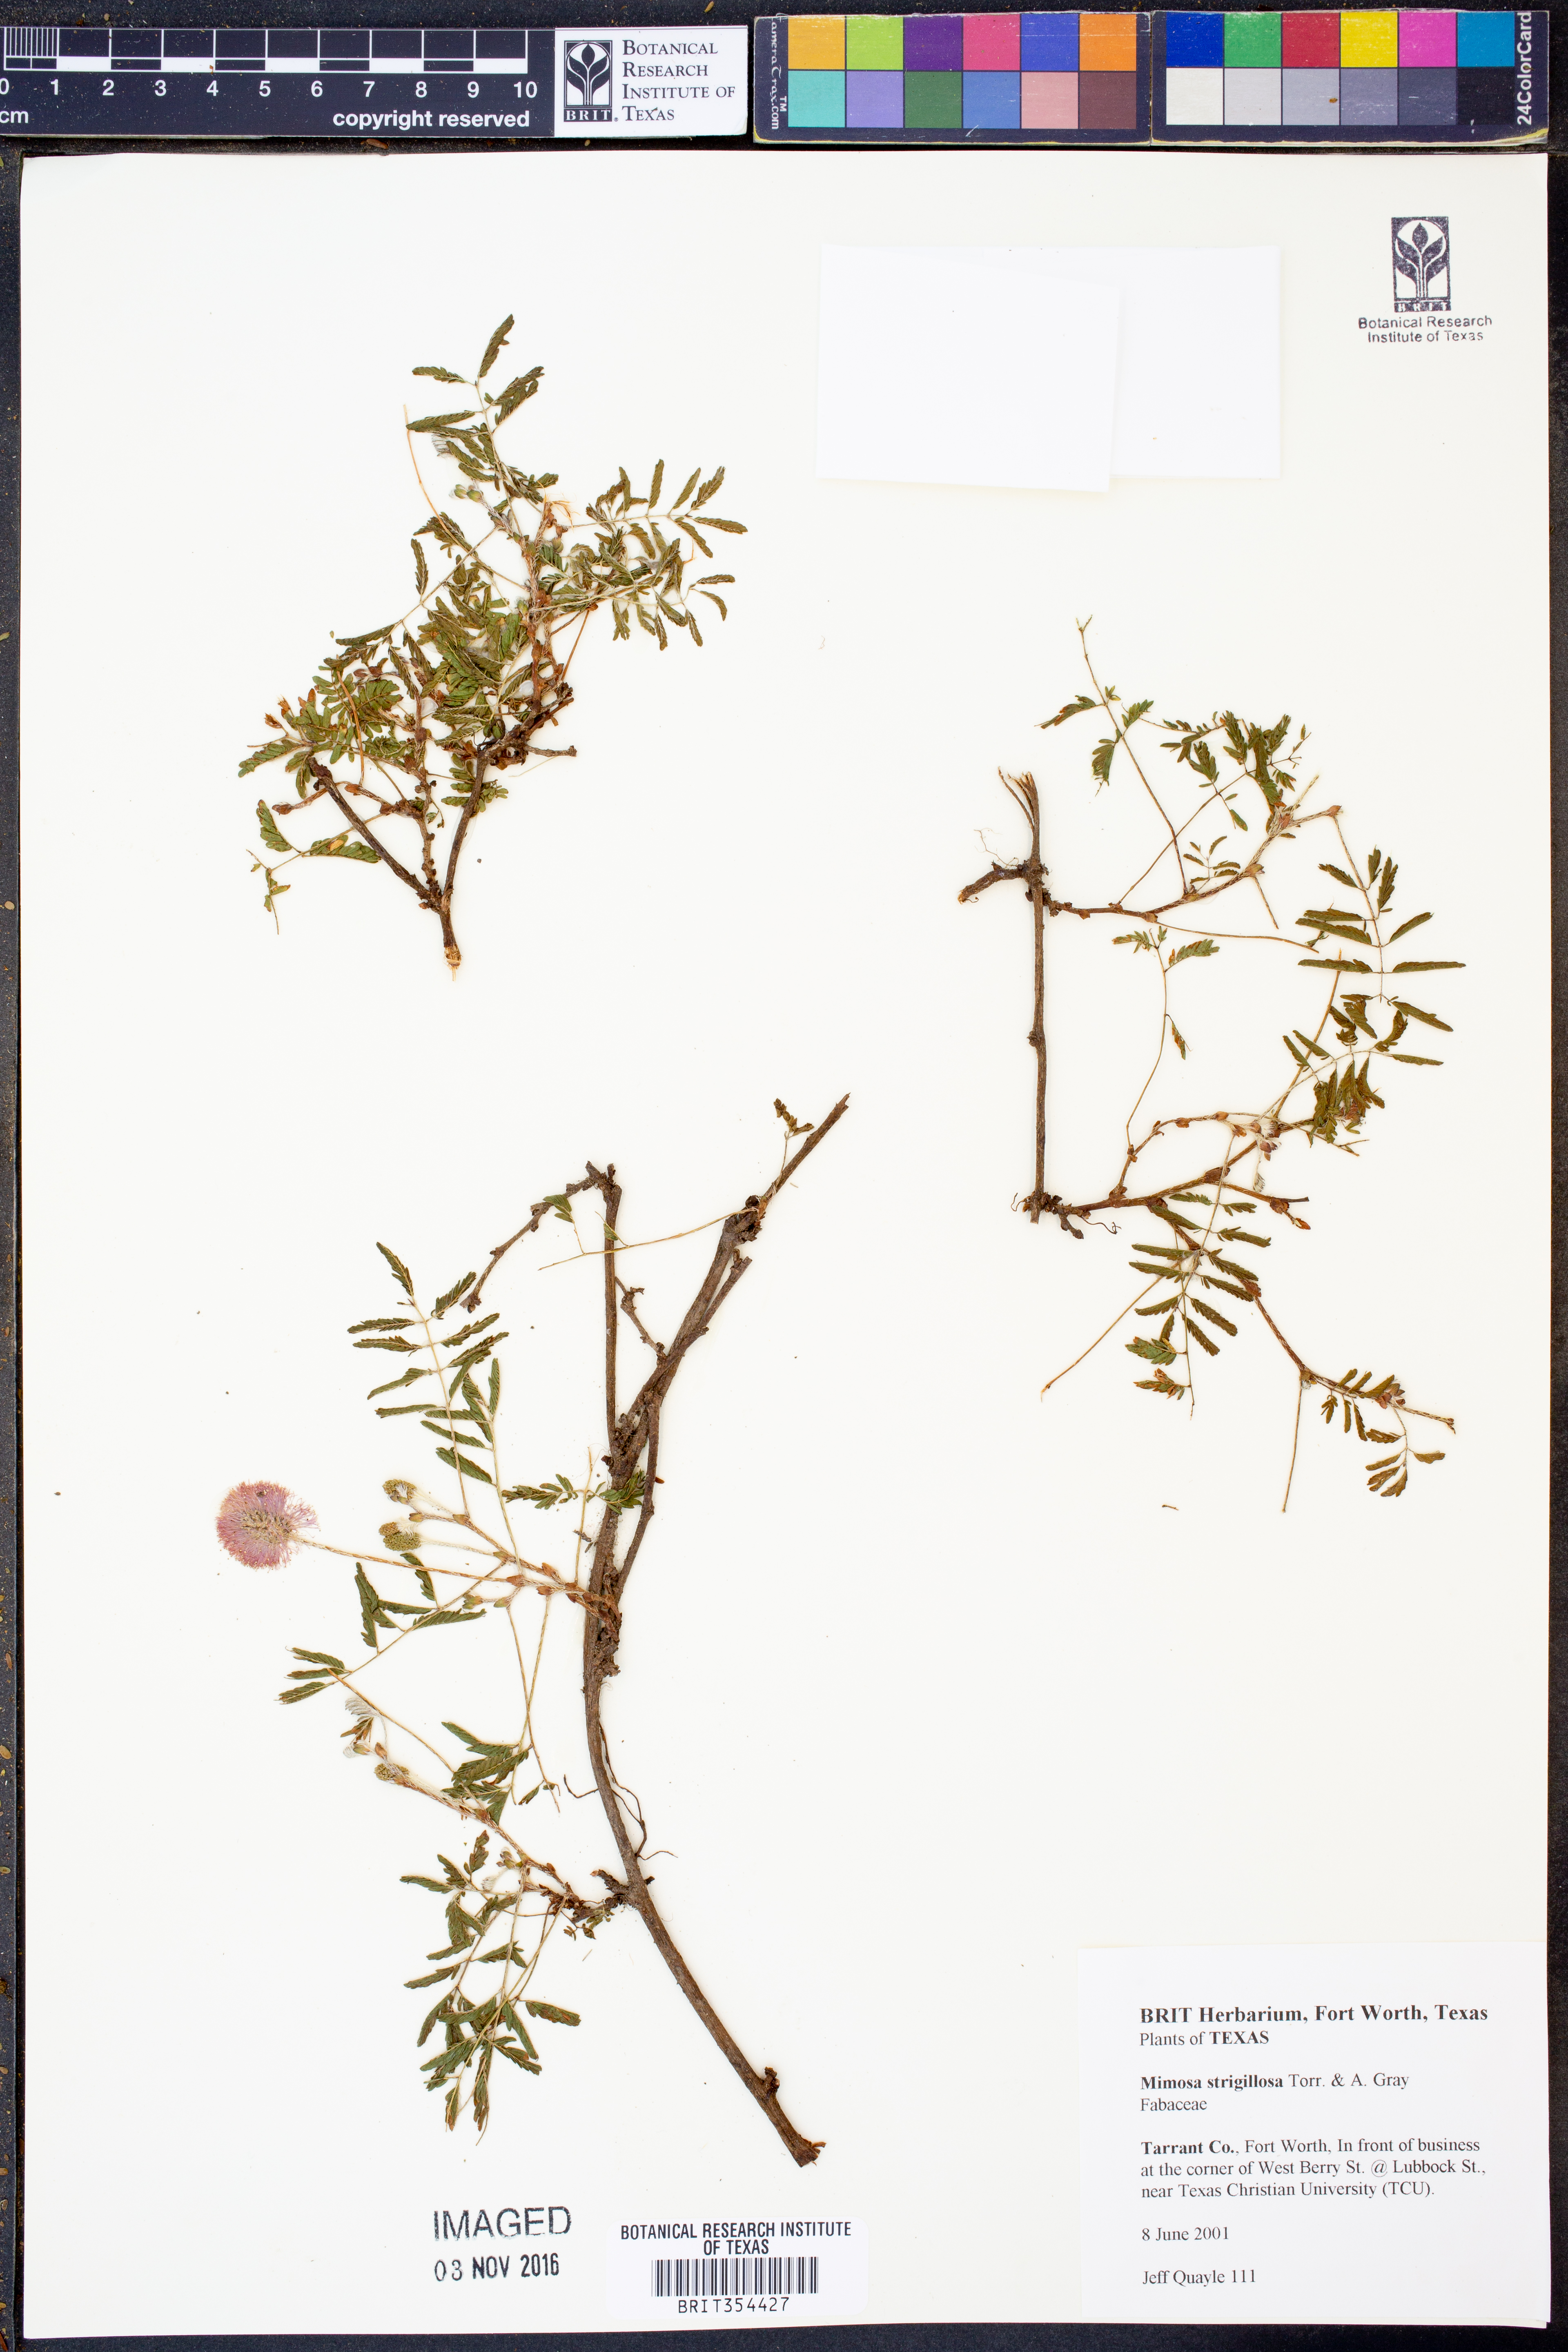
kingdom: Plantae
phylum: Tracheophyta
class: Magnoliopsida
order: Fabales
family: Fabaceae
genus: Mimosa
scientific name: Mimosa strigillosa
